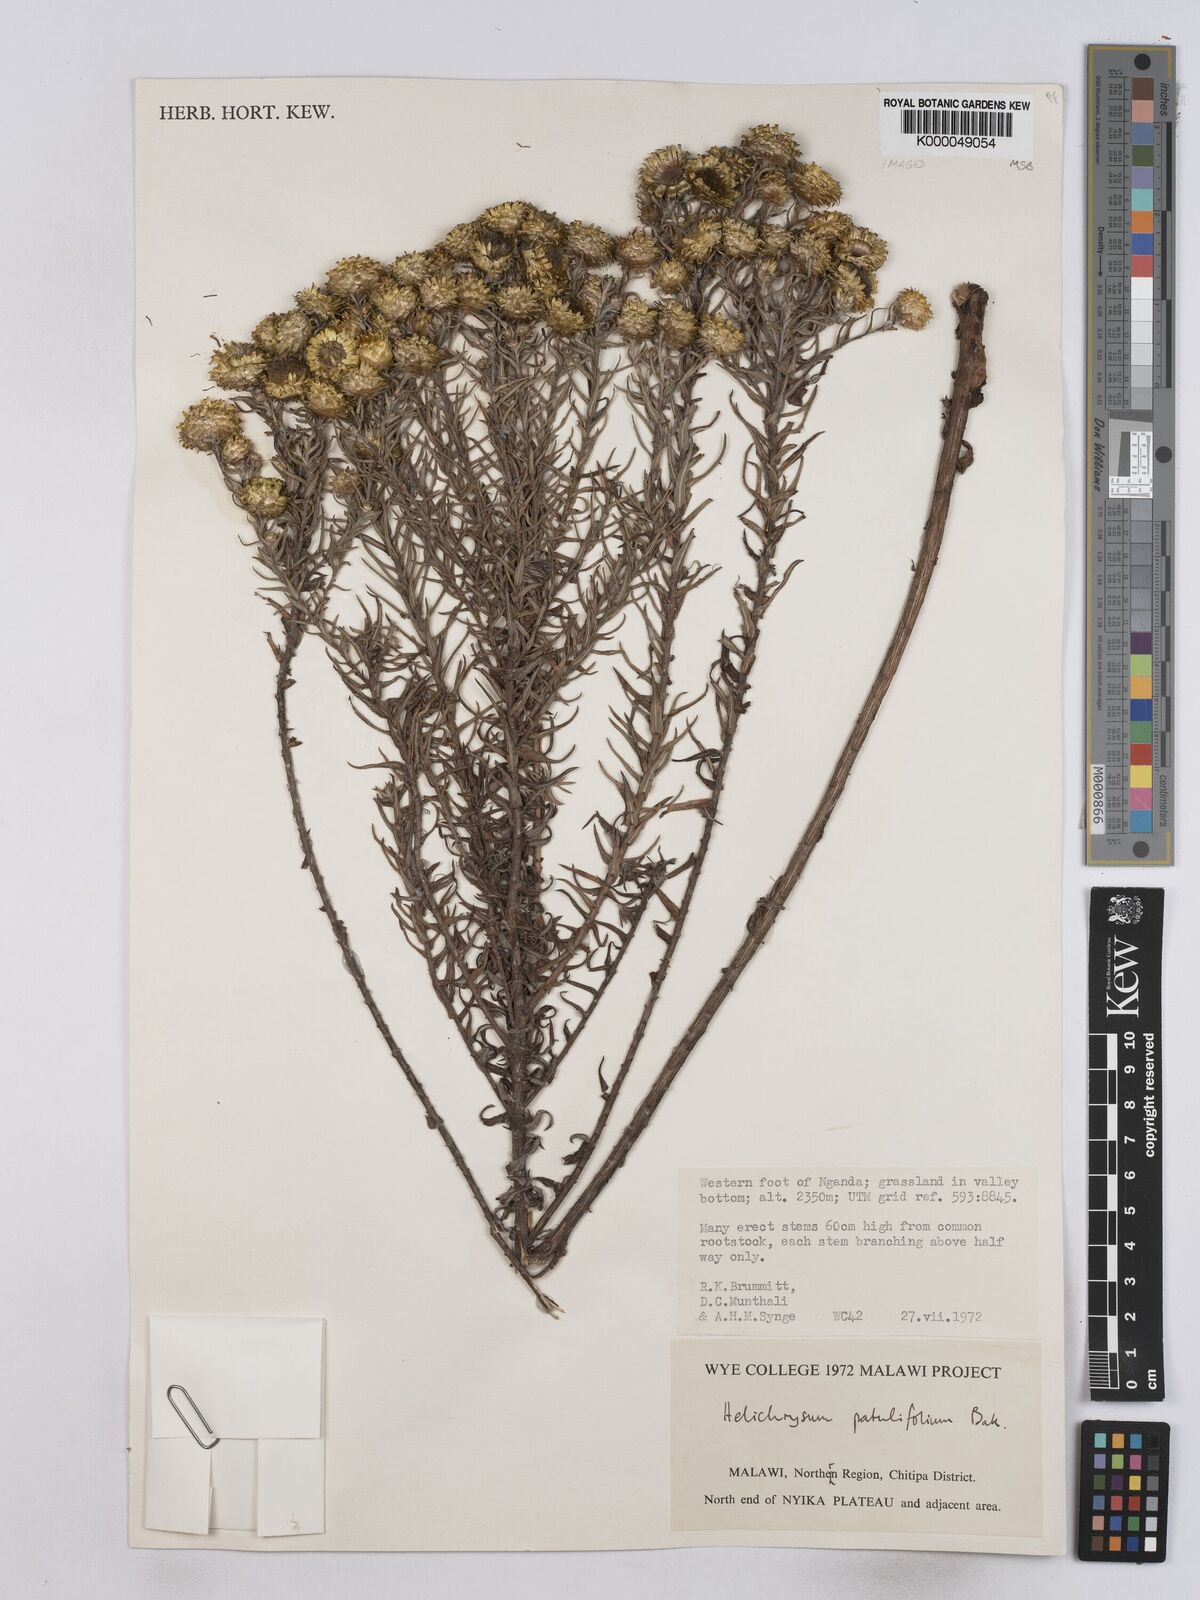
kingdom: Plantae
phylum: Tracheophyta
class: Magnoliopsida
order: Asterales
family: Asteraceae
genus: Helichrysum
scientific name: Helichrysum patulifolium
